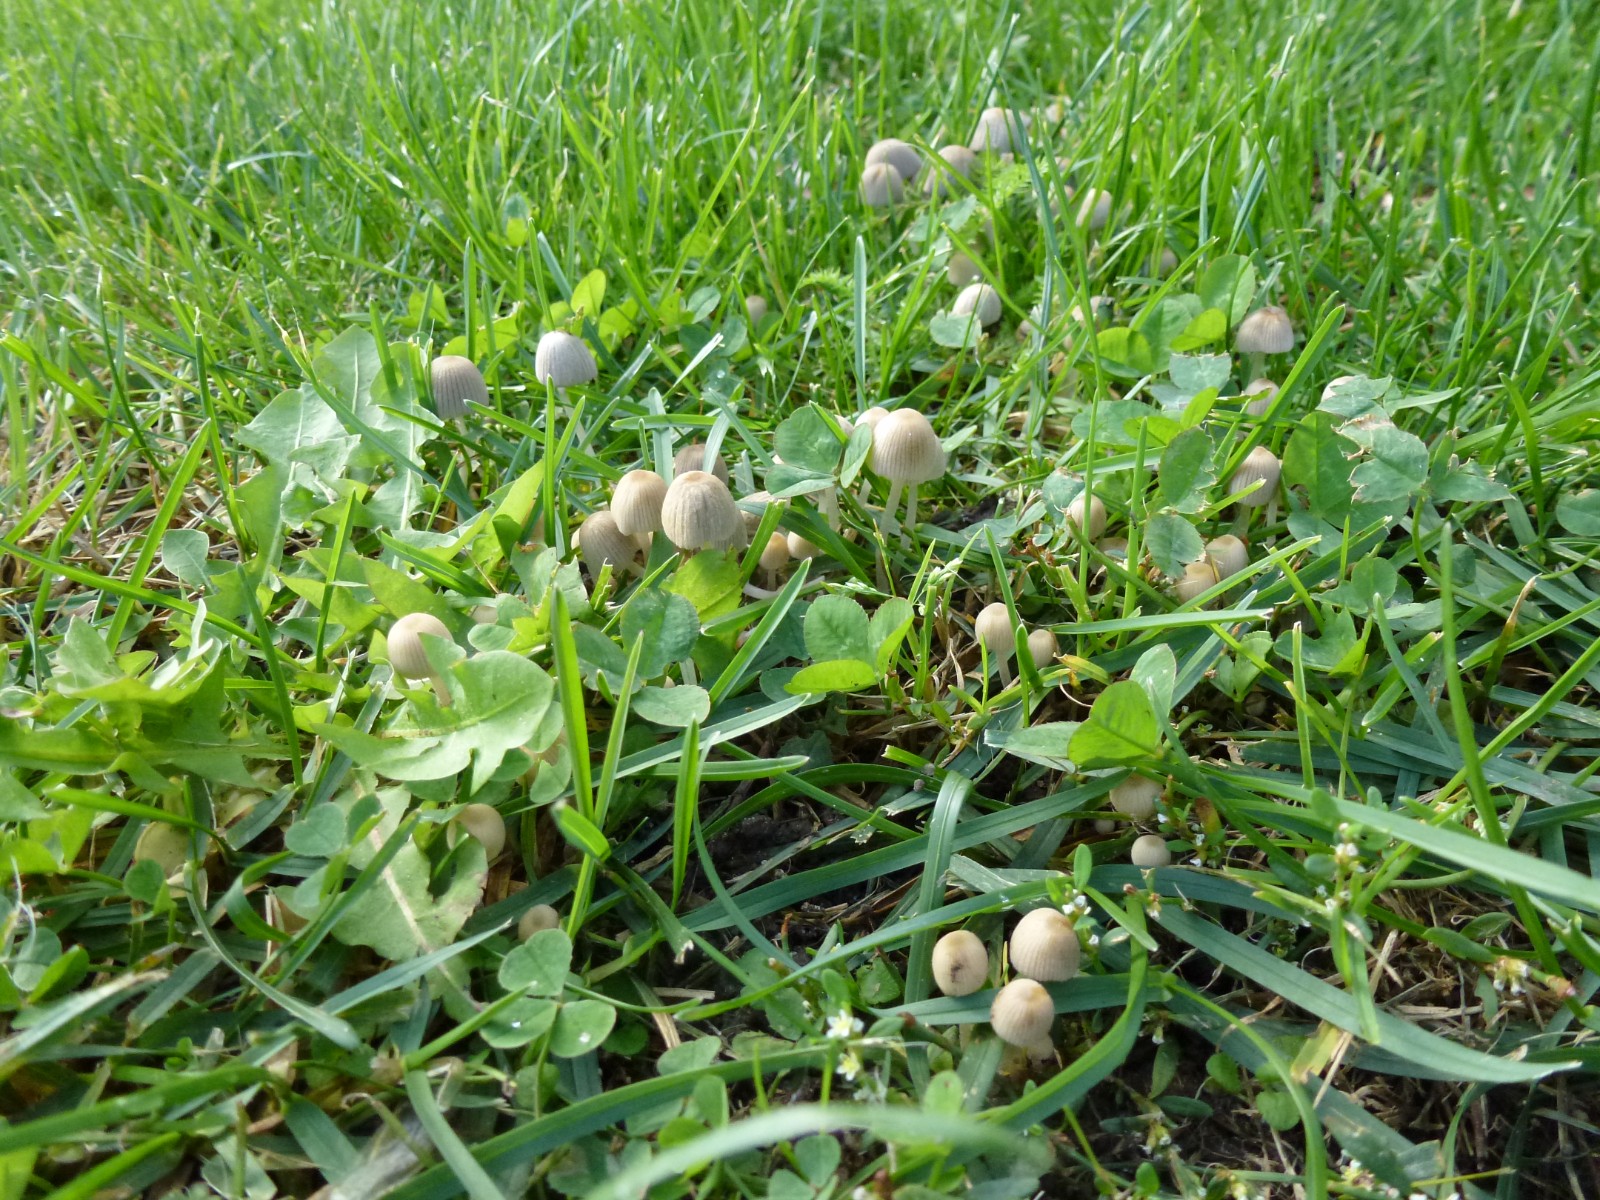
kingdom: Fungi
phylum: Basidiomycota
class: Agaricomycetes
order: Agaricales
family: Psathyrellaceae
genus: Coprinellus
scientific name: Coprinellus disseminatus
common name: bredsået blækhat
